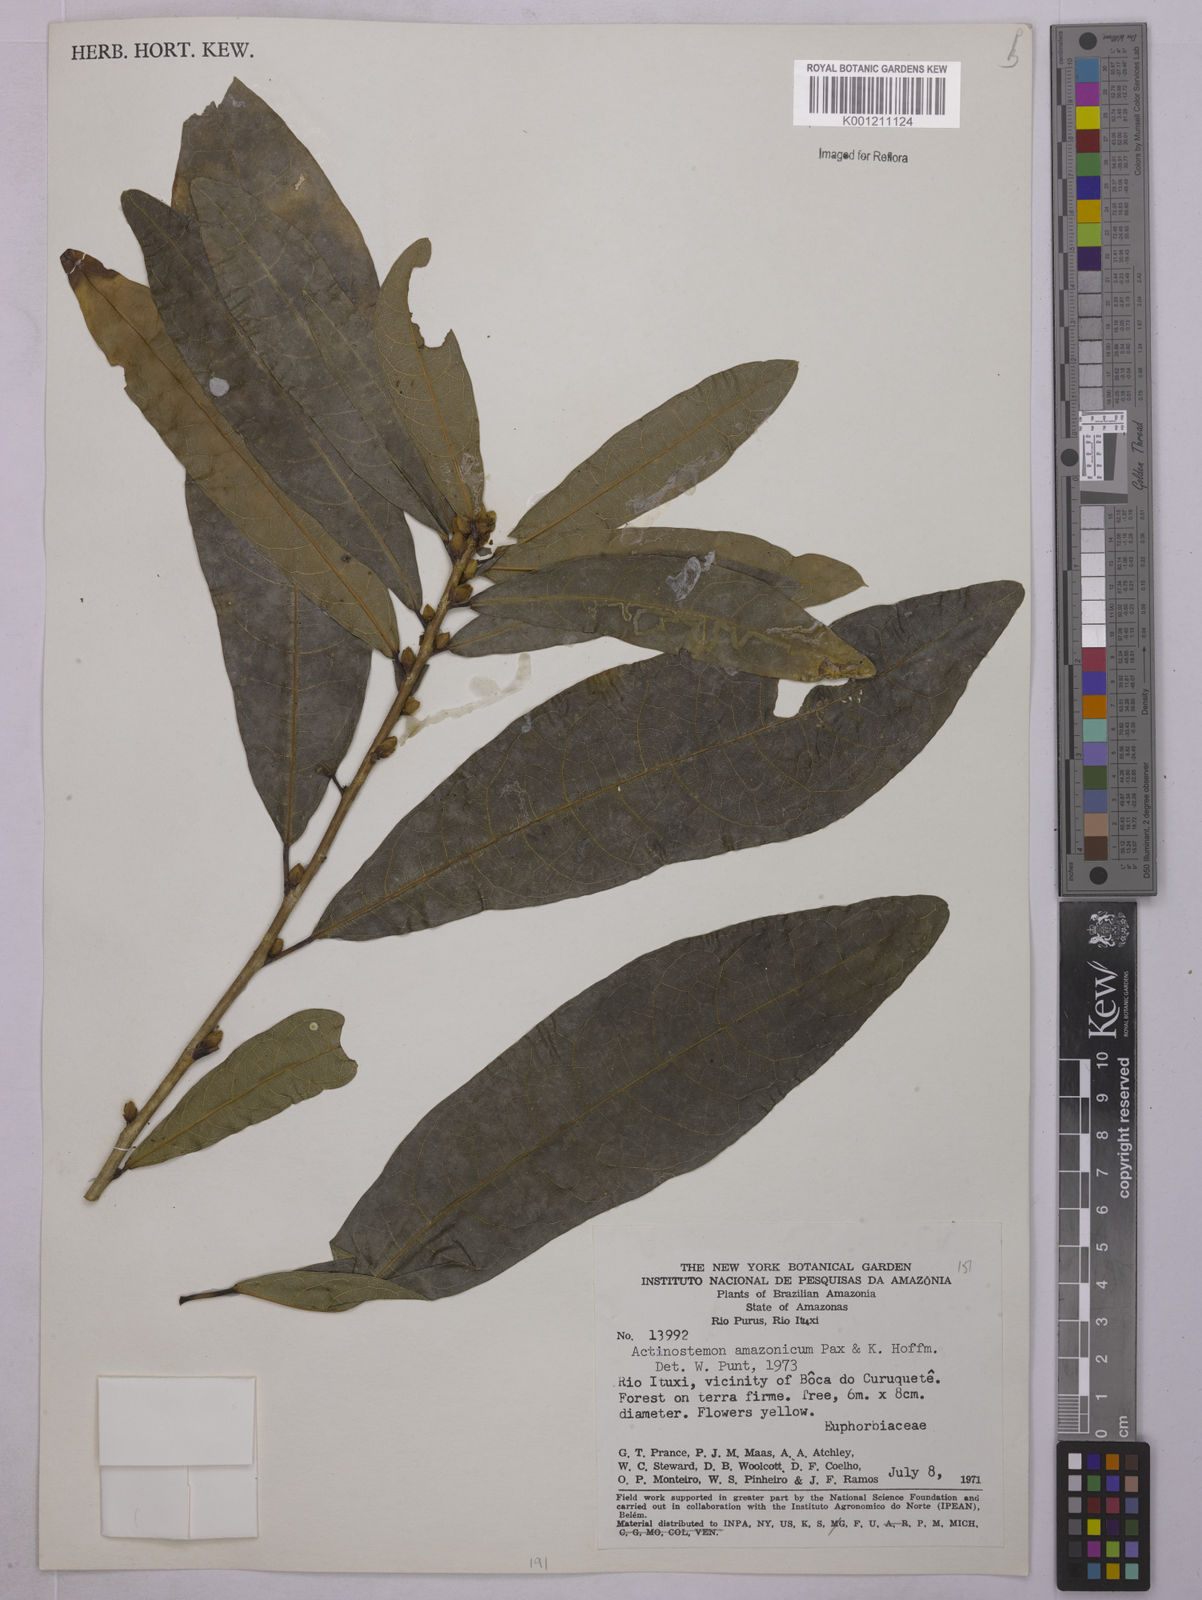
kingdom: Plantae
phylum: Tracheophyta
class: Magnoliopsida
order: Malpighiales
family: Euphorbiaceae
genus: Actinostemon
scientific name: Actinostemon amazonicus
